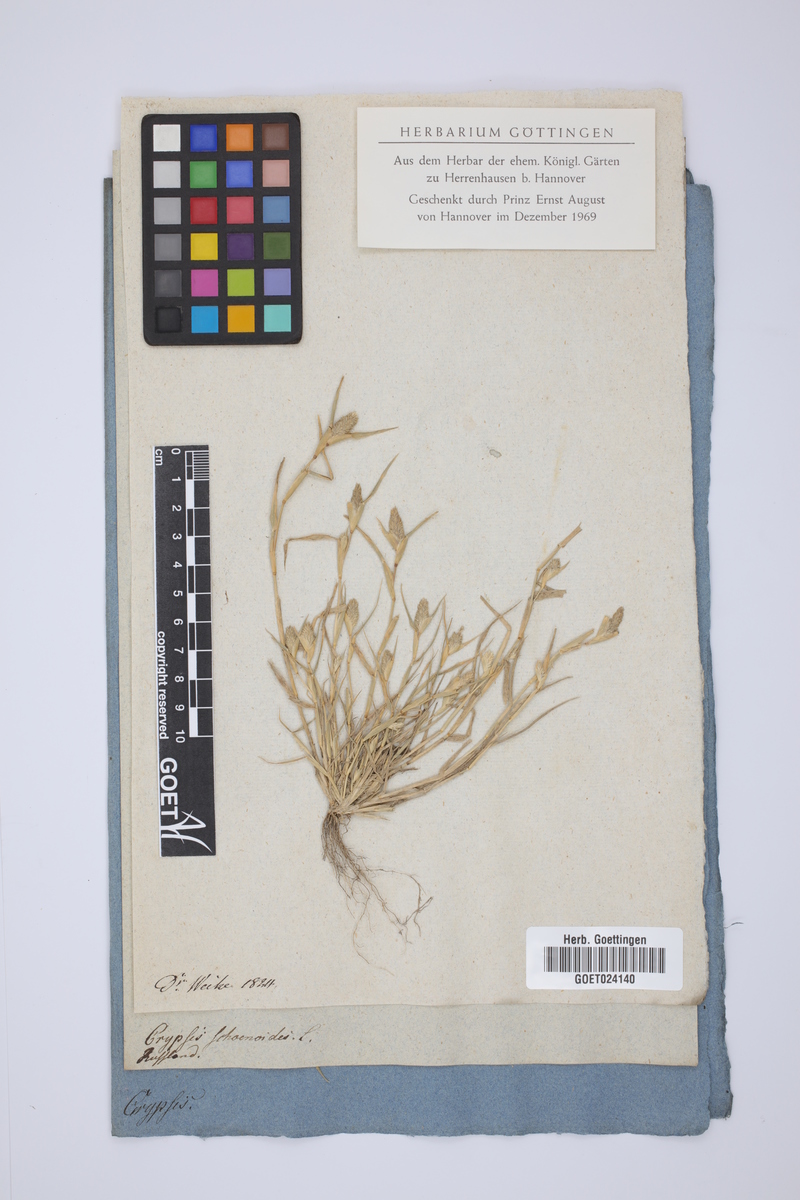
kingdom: Plantae
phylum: Tracheophyta
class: Liliopsida
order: Poales
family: Poaceae
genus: Sporobolus
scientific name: Sporobolus schoenoides
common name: Rush-like timothy
